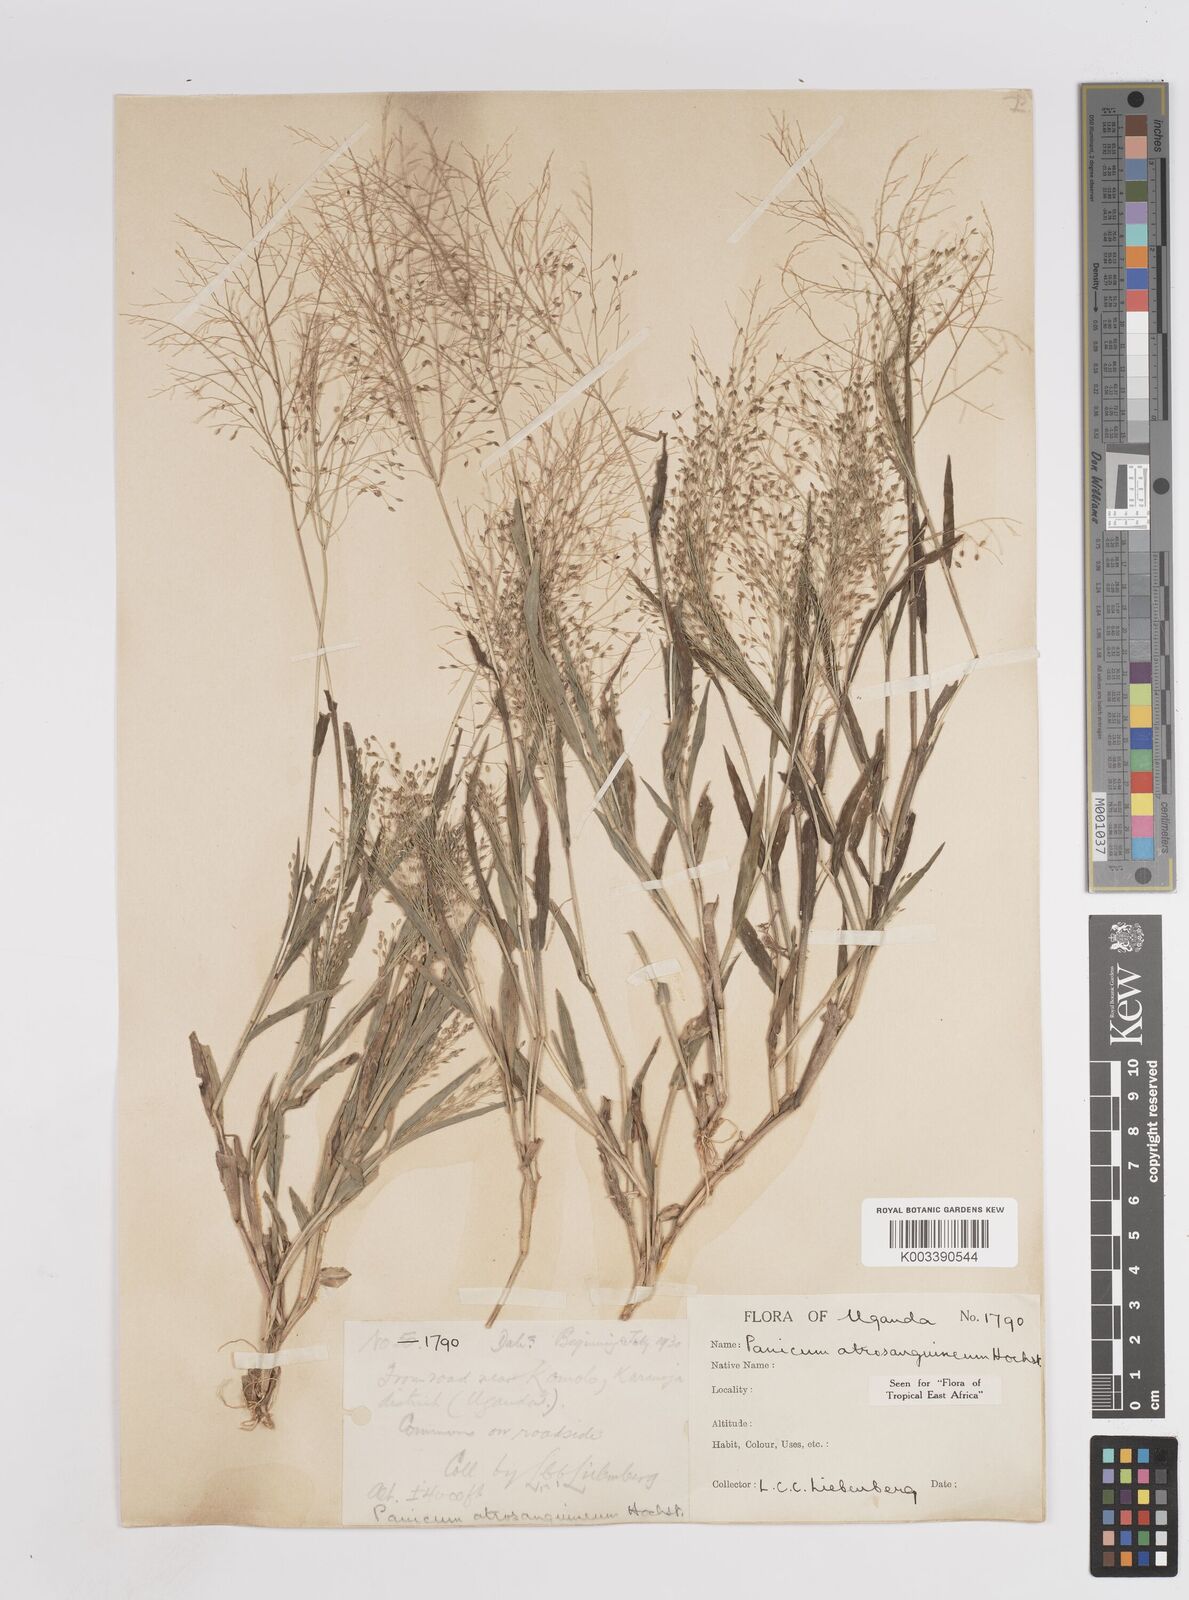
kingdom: Plantae
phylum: Tracheophyta
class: Liliopsida
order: Poales
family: Poaceae
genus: Panicum
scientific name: Panicum atrosanguineum
